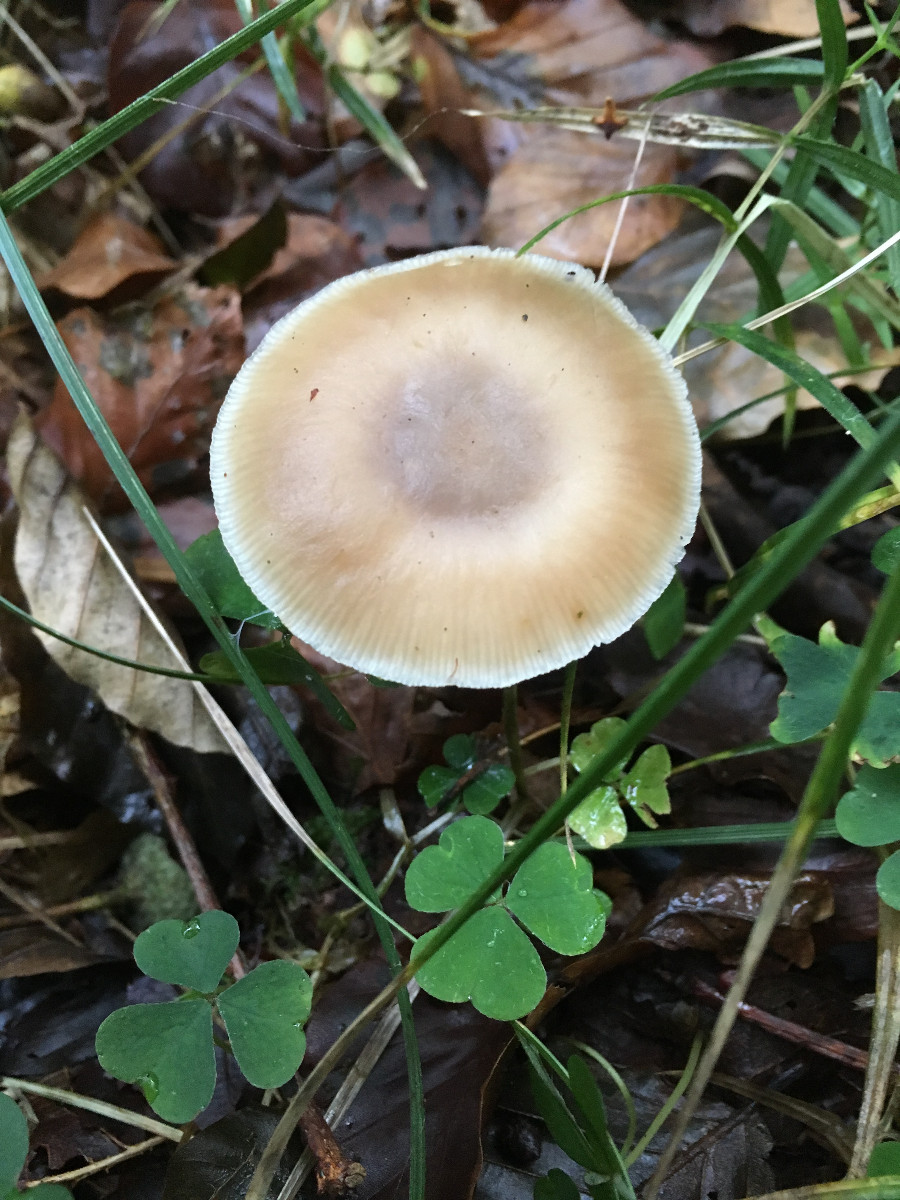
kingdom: Fungi
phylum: Basidiomycota
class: Agaricomycetes
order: Agaricales
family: Omphalotaceae
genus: Rhodocollybia
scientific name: Rhodocollybia asema
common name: horngrå fladhat
